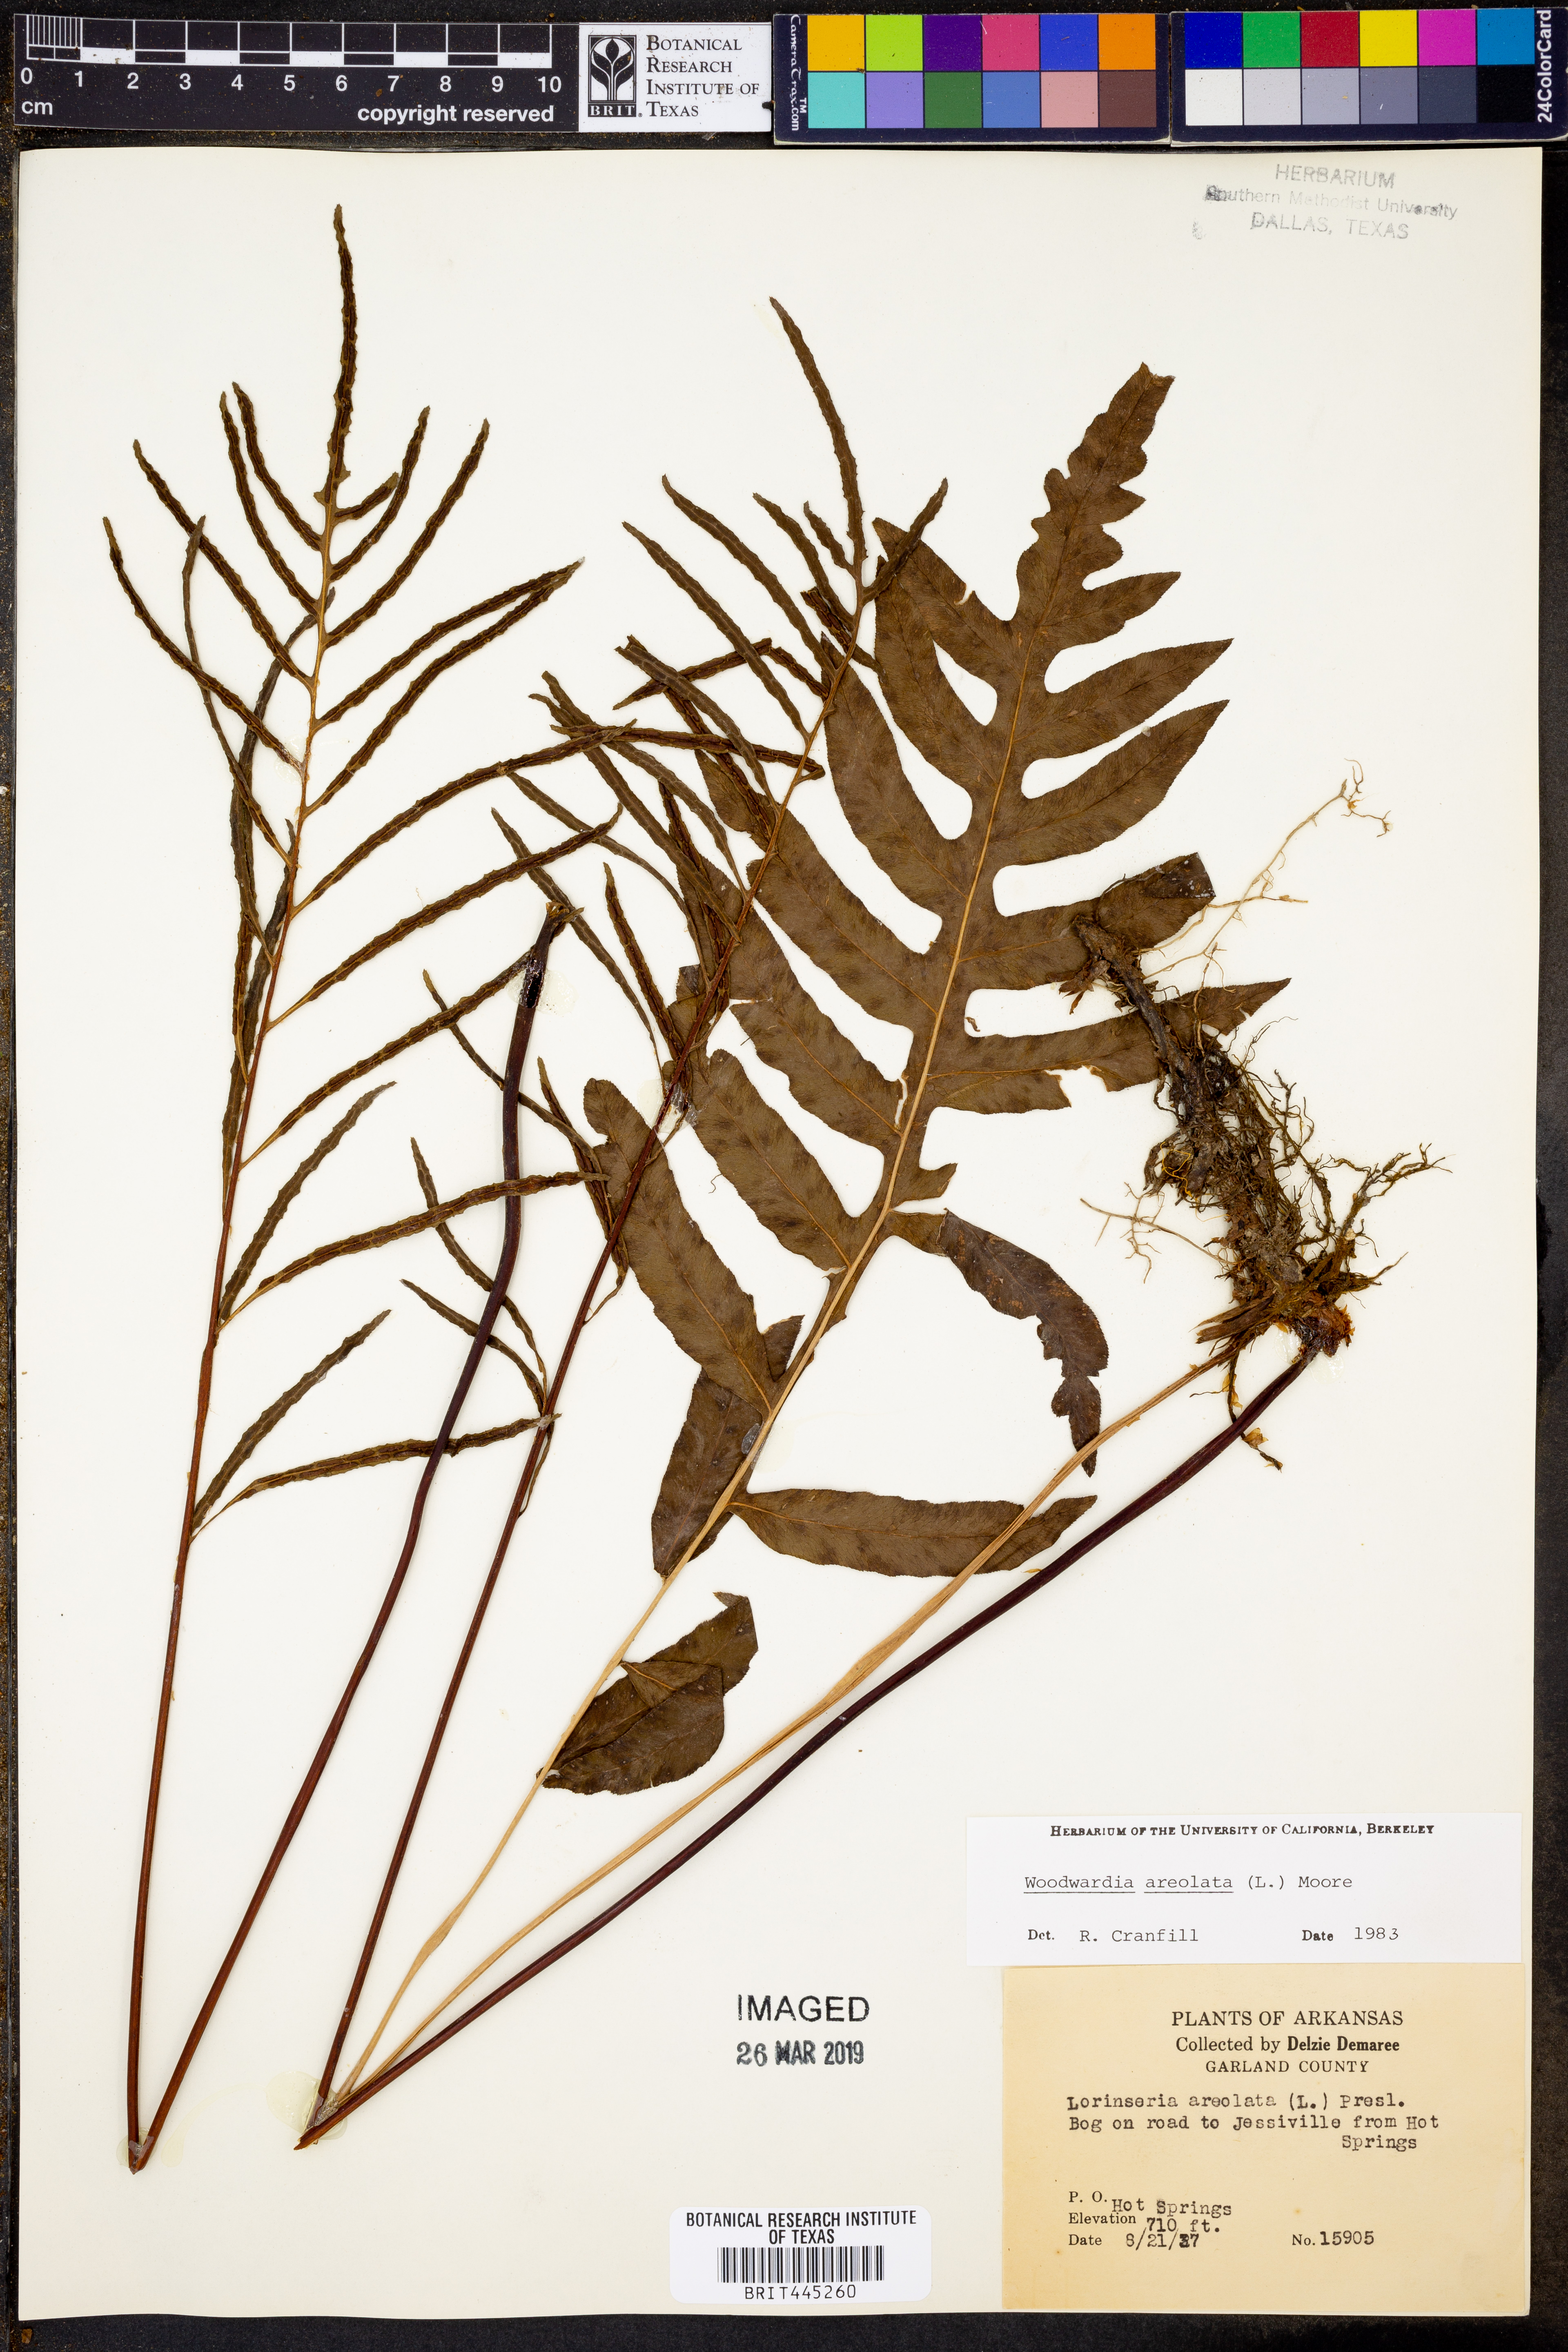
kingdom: Plantae
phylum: Tracheophyta
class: Polypodiopsida
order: Polypodiales
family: Blechnaceae
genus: Lorinseria
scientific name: Lorinseria areolata
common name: Dwarf chain fern
